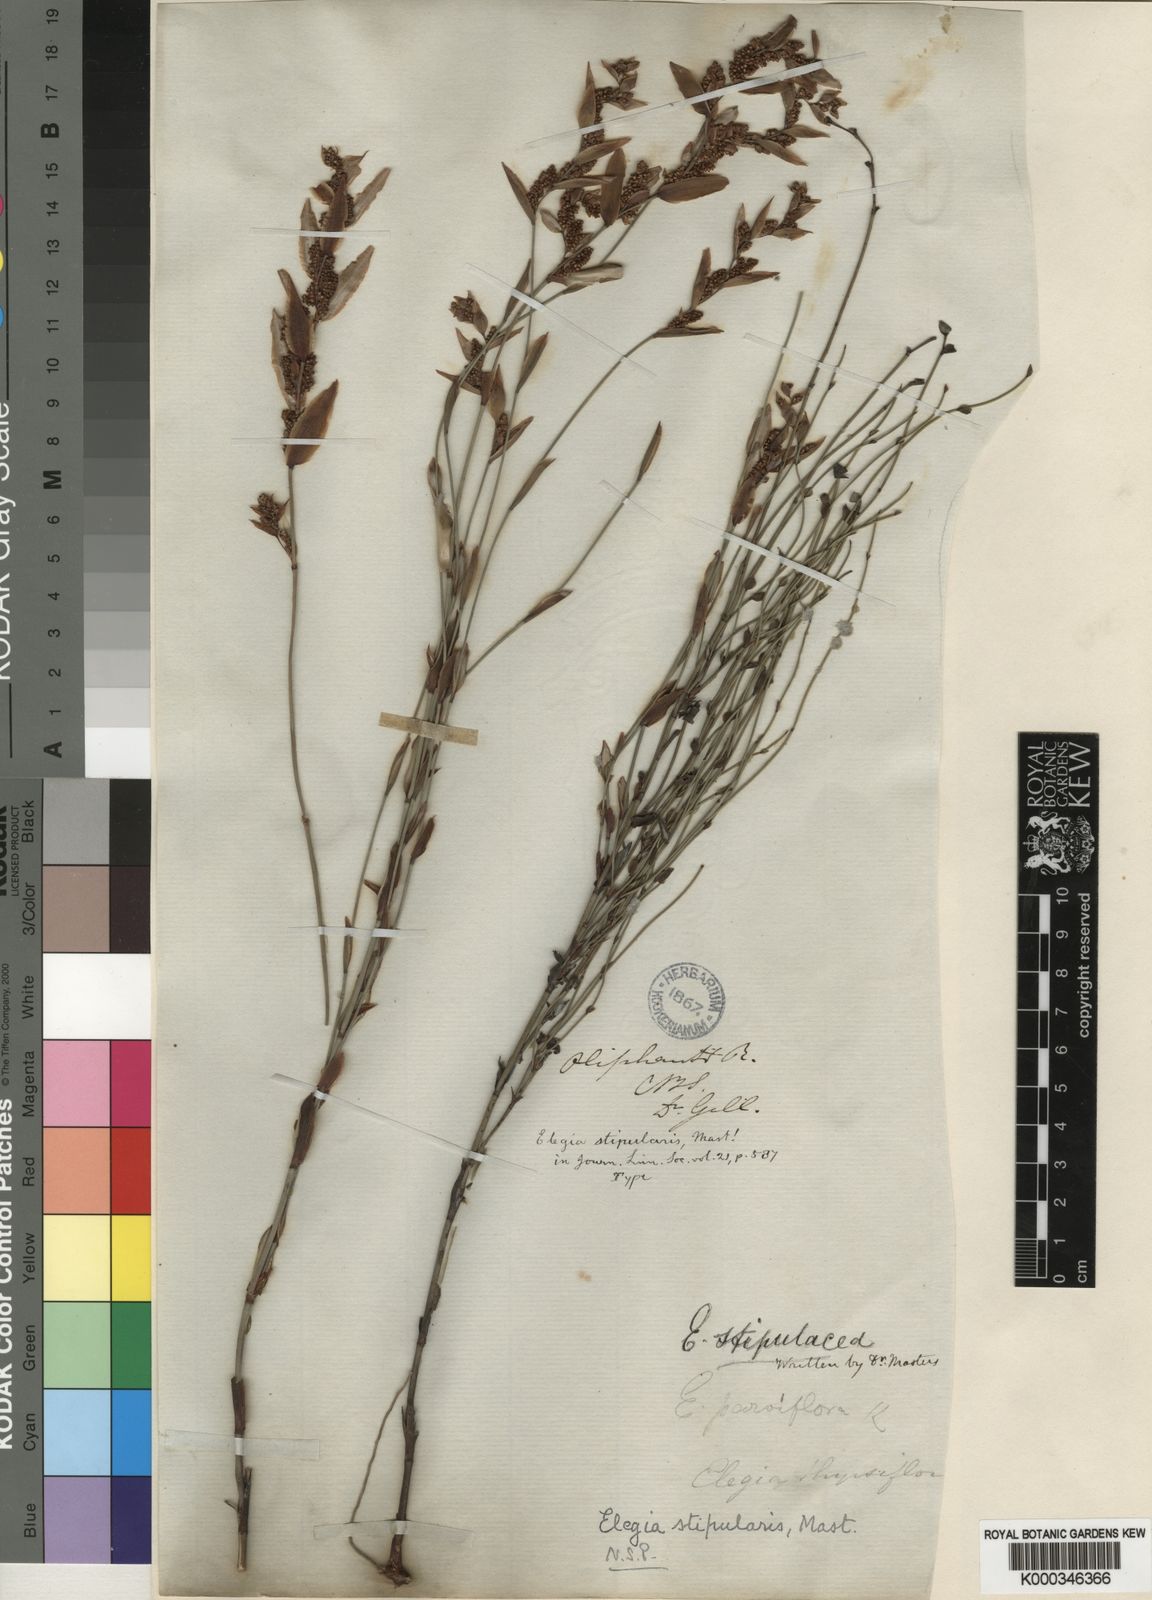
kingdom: Plantae
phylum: Tracheophyta
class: Liliopsida
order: Poales
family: Restionaceae
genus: Elegia
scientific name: Elegia stipularis
